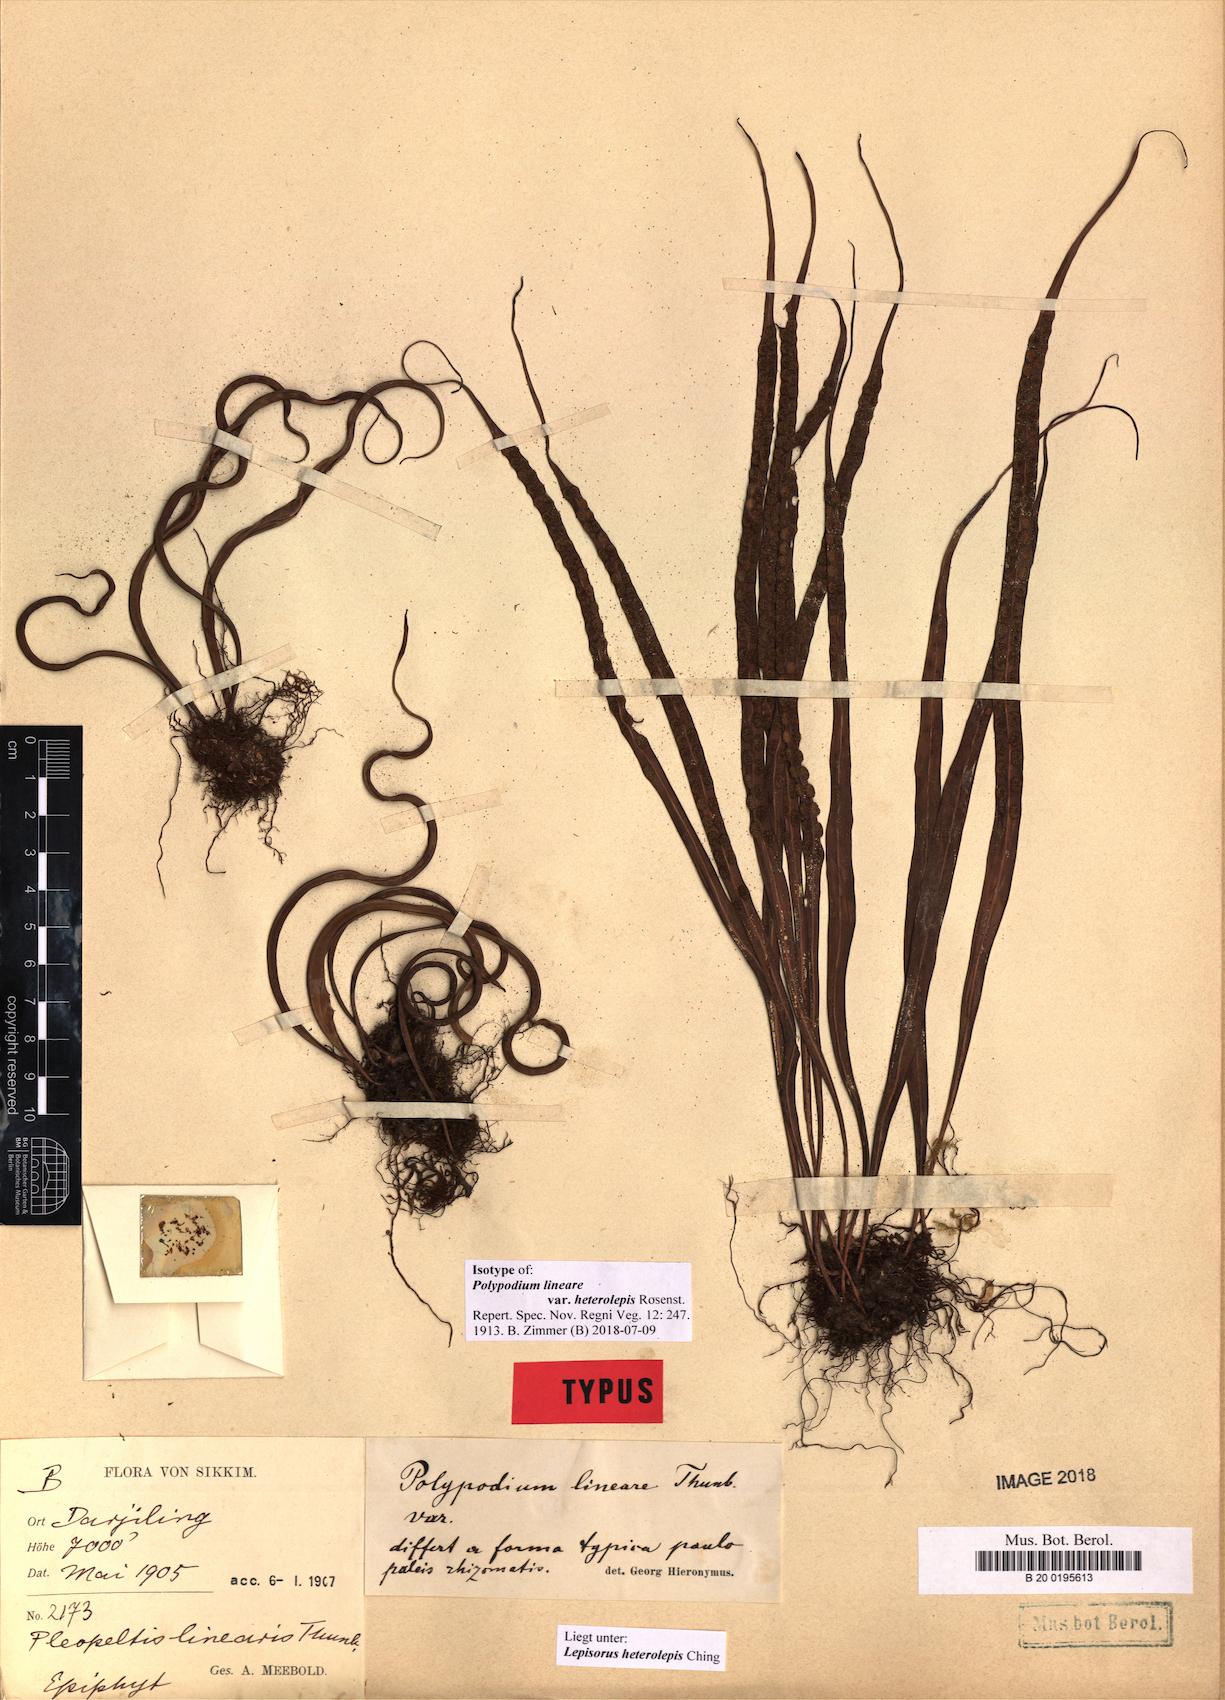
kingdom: Plantae
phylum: Tracheophyta
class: Polypodiopsida
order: Polypodiales
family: Polypodiaceae
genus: Lepisorus
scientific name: Lepisorus heterolepis
